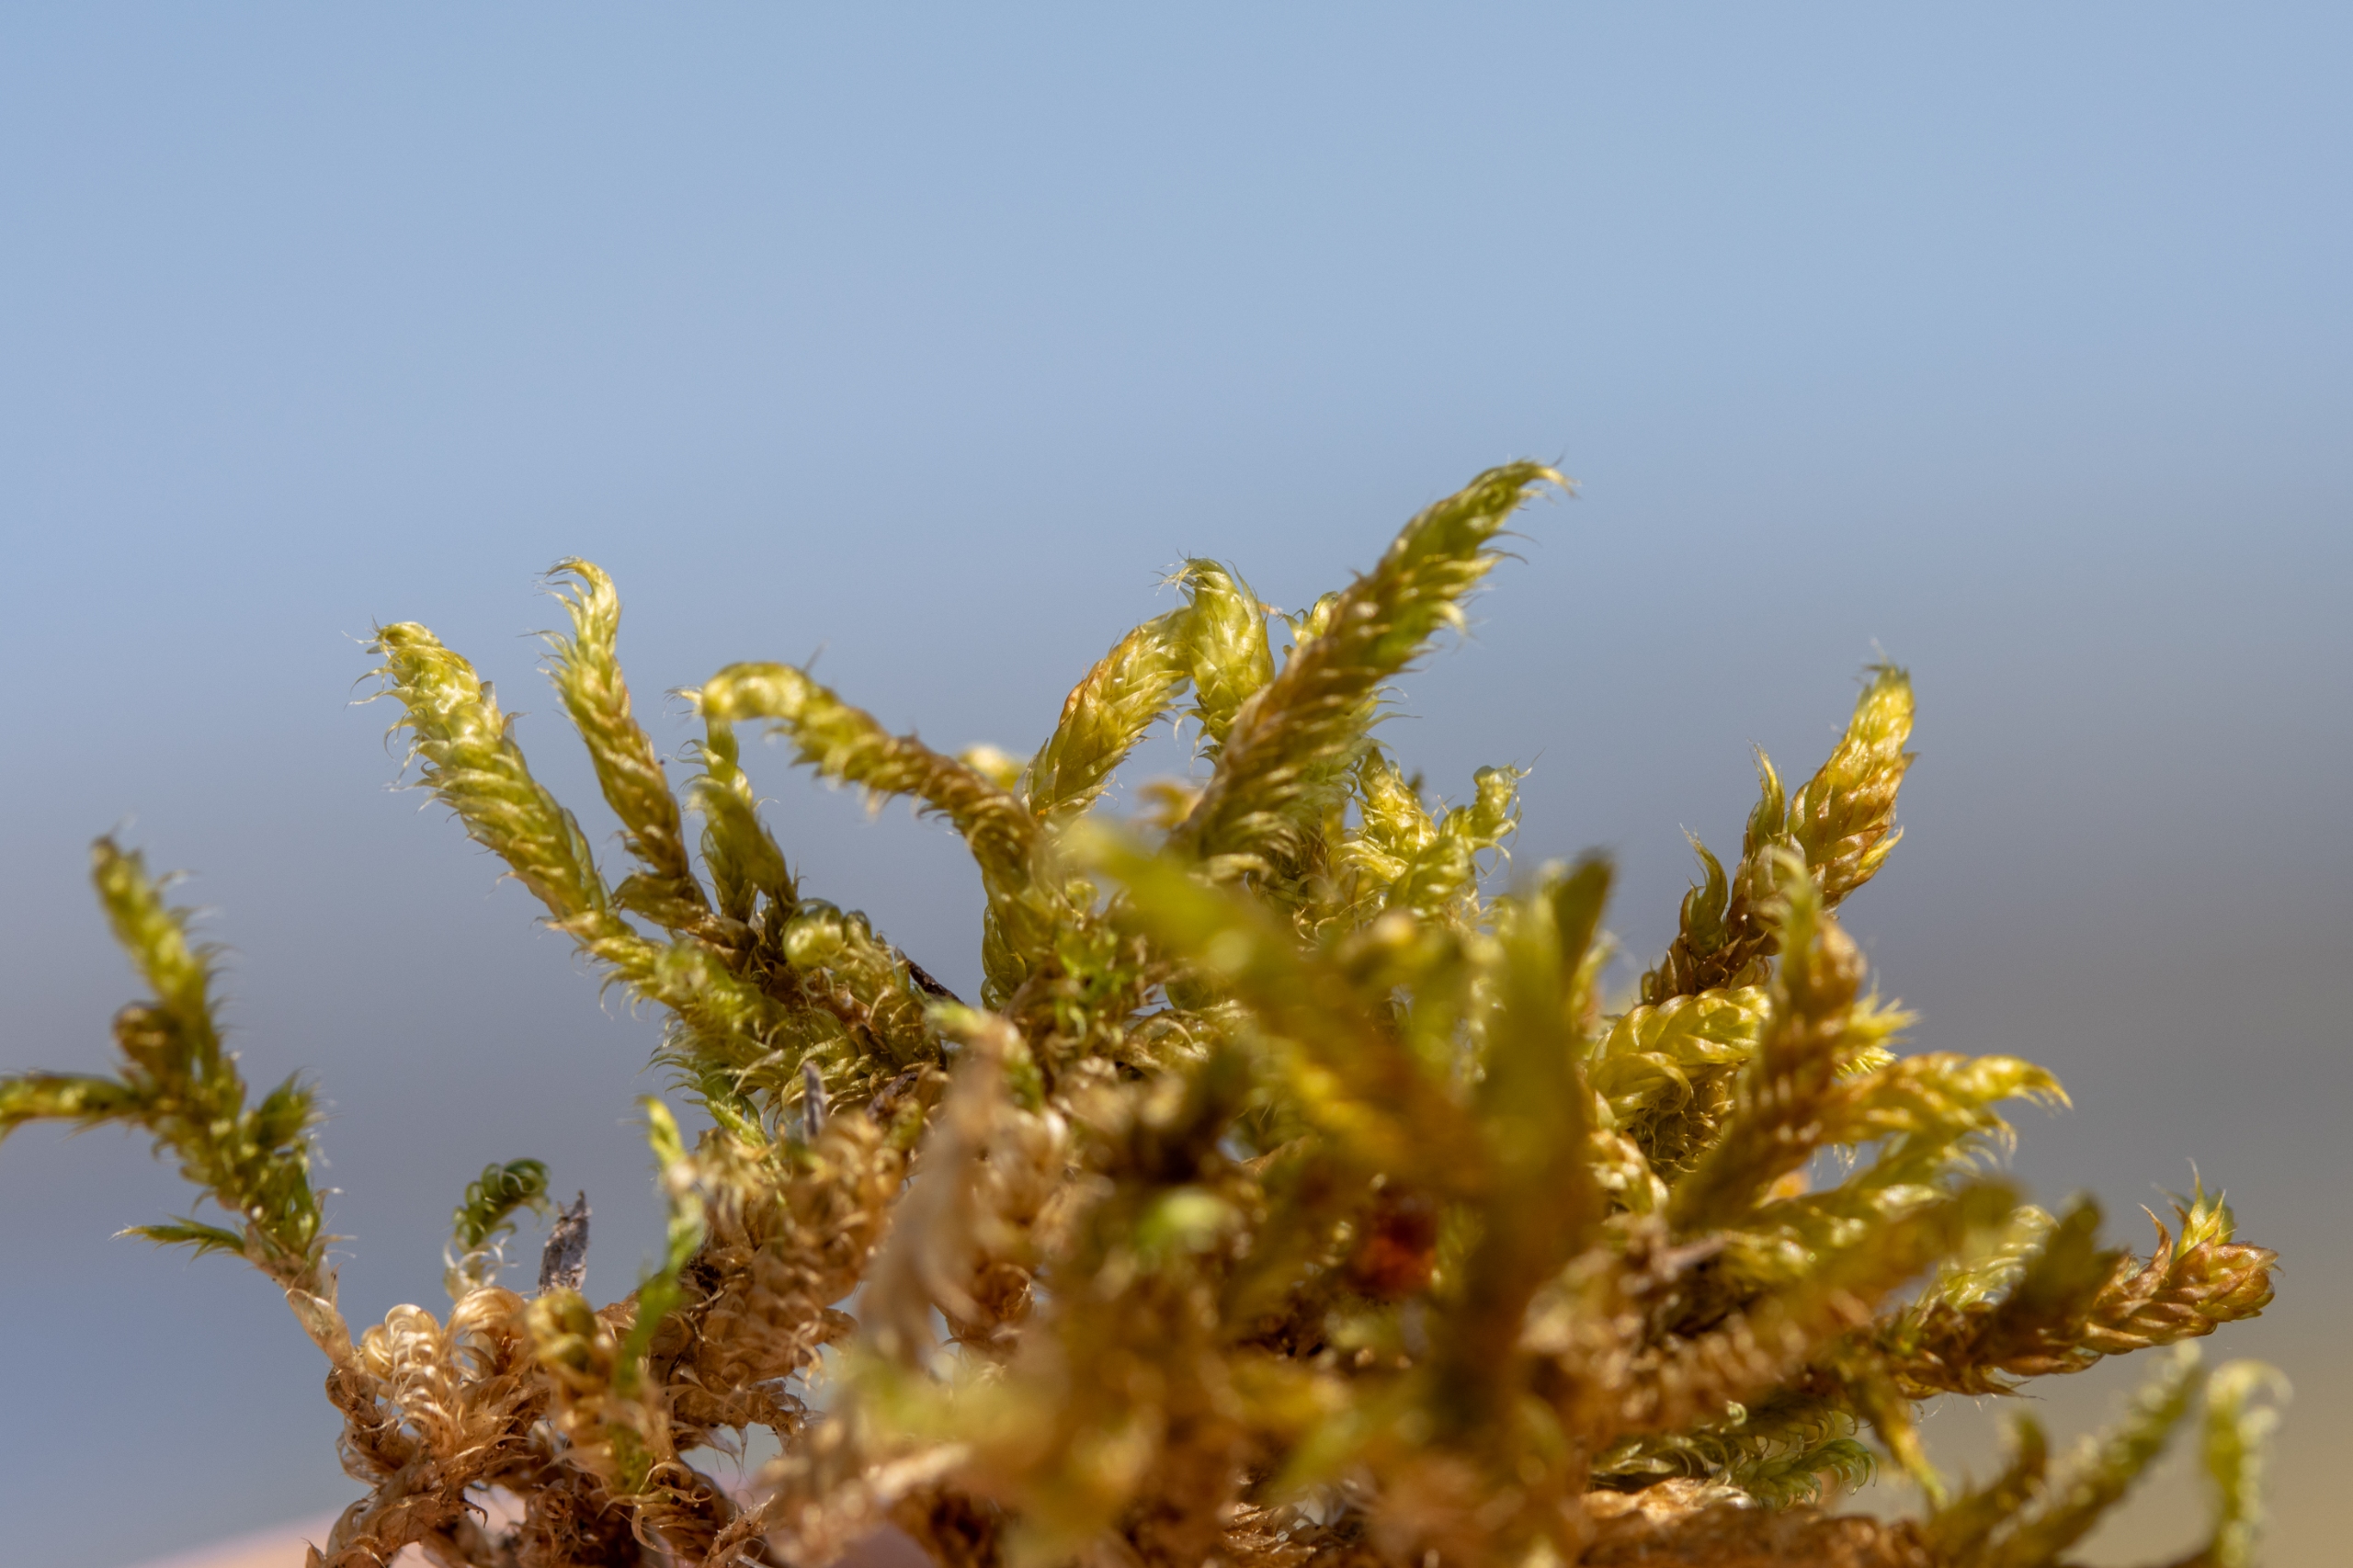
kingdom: Plantae
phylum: Bryophyta
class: Bryopsida
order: Hypnales
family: Hypnaceae
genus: Hypnum
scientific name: Hypnum cupressiforme
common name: Almindelig cypresmos
